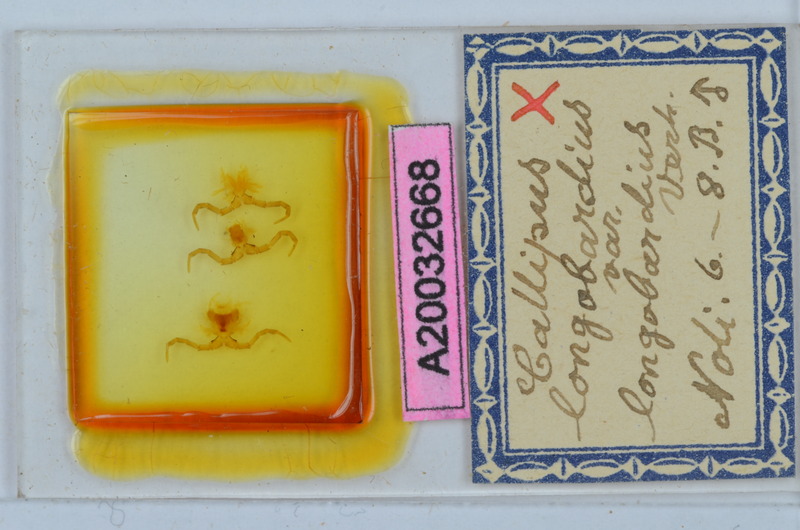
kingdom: Animalia
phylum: Arthropoda
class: Diplopoda
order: Callipodida
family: Callipodidae
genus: Callipus
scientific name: Callipus foetidissimus
